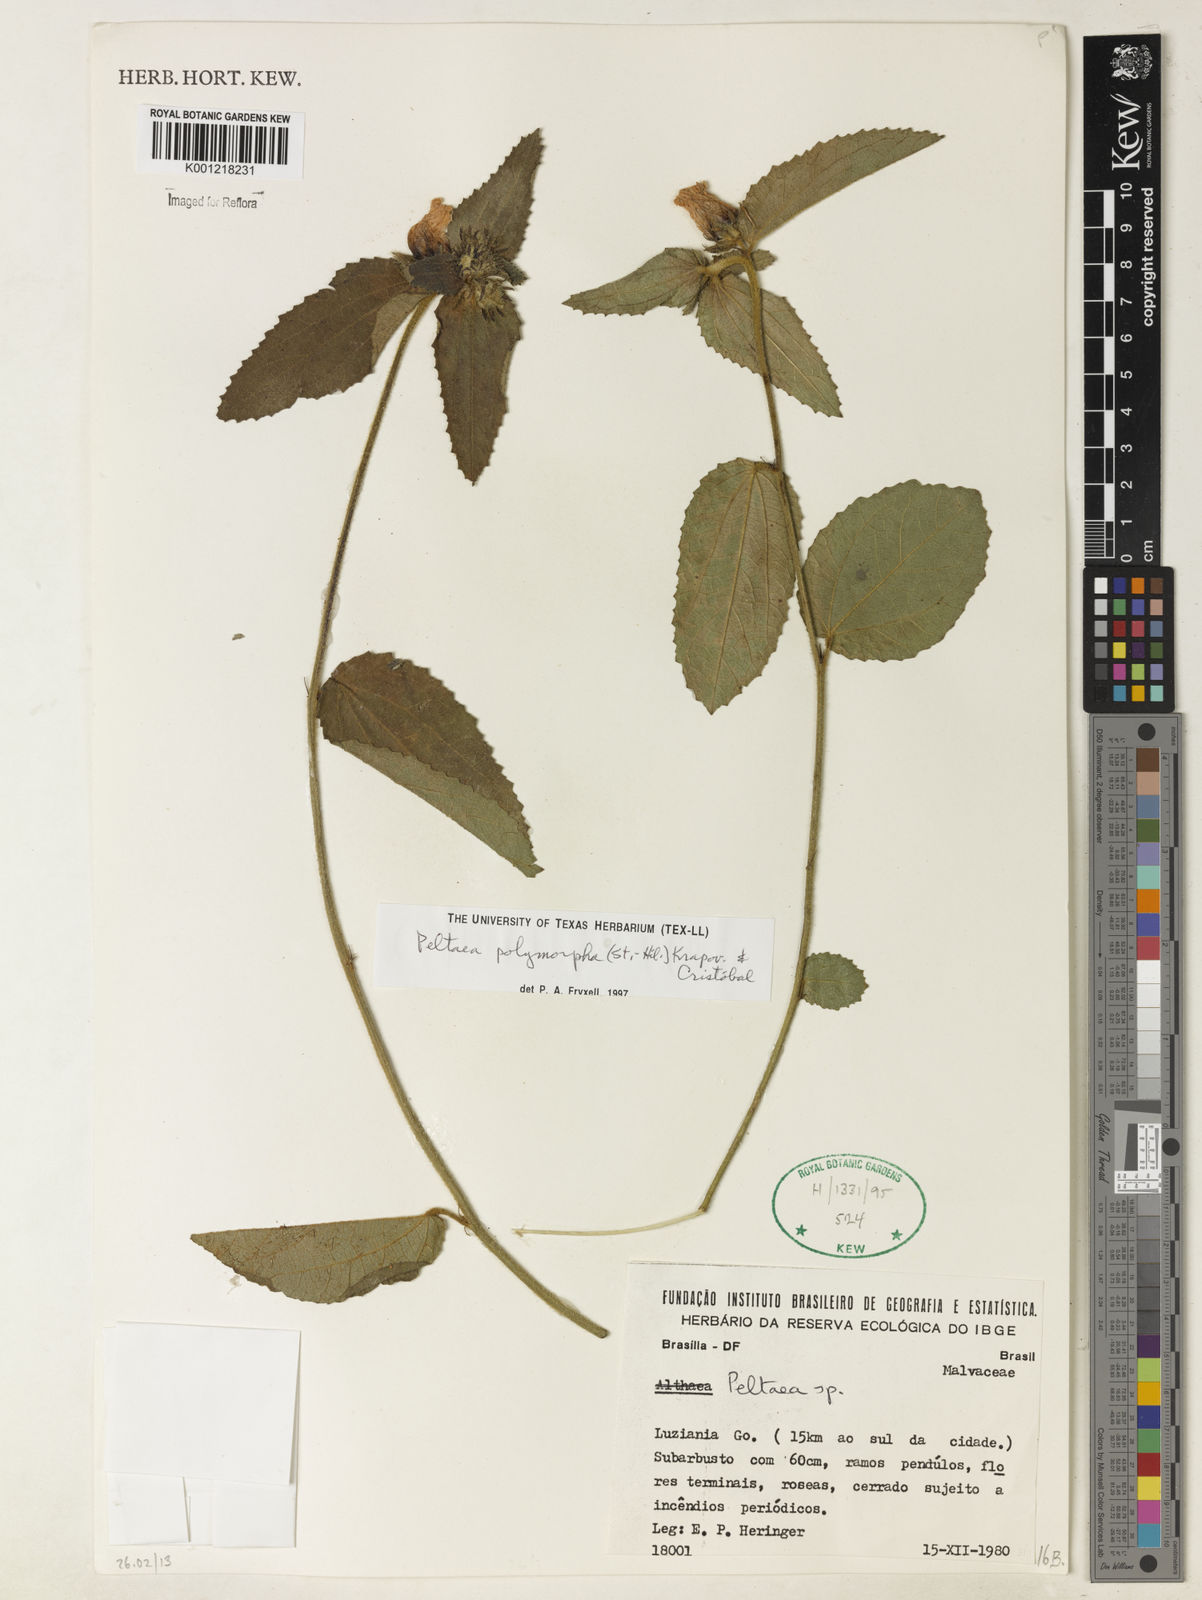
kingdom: Plantae
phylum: Tracheophyta
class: Magnoliopsida
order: Malvales
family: Malvaceae
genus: Peltaea
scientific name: Peltaea
